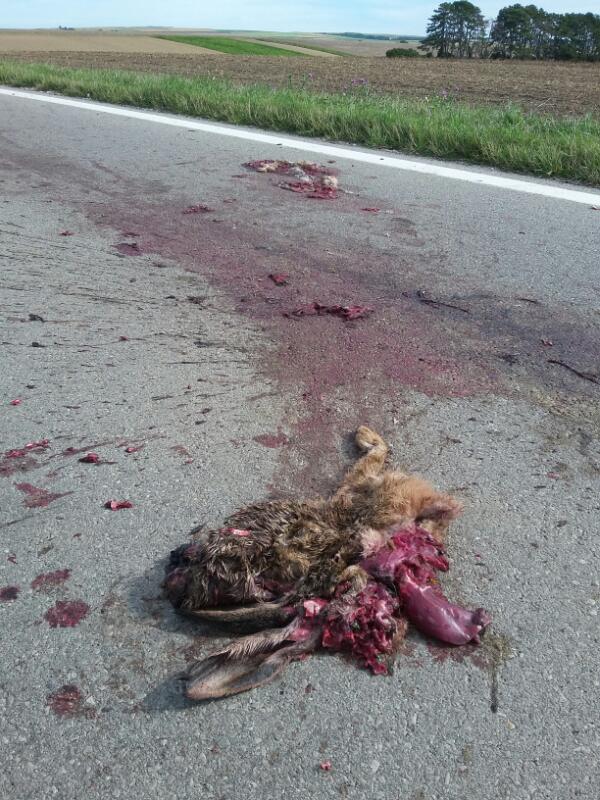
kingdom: Animalia
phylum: Chordata
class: Mammalia
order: Lagomorpha
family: Leporidae
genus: Lepus
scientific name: Lepus europaeus
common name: European hare
